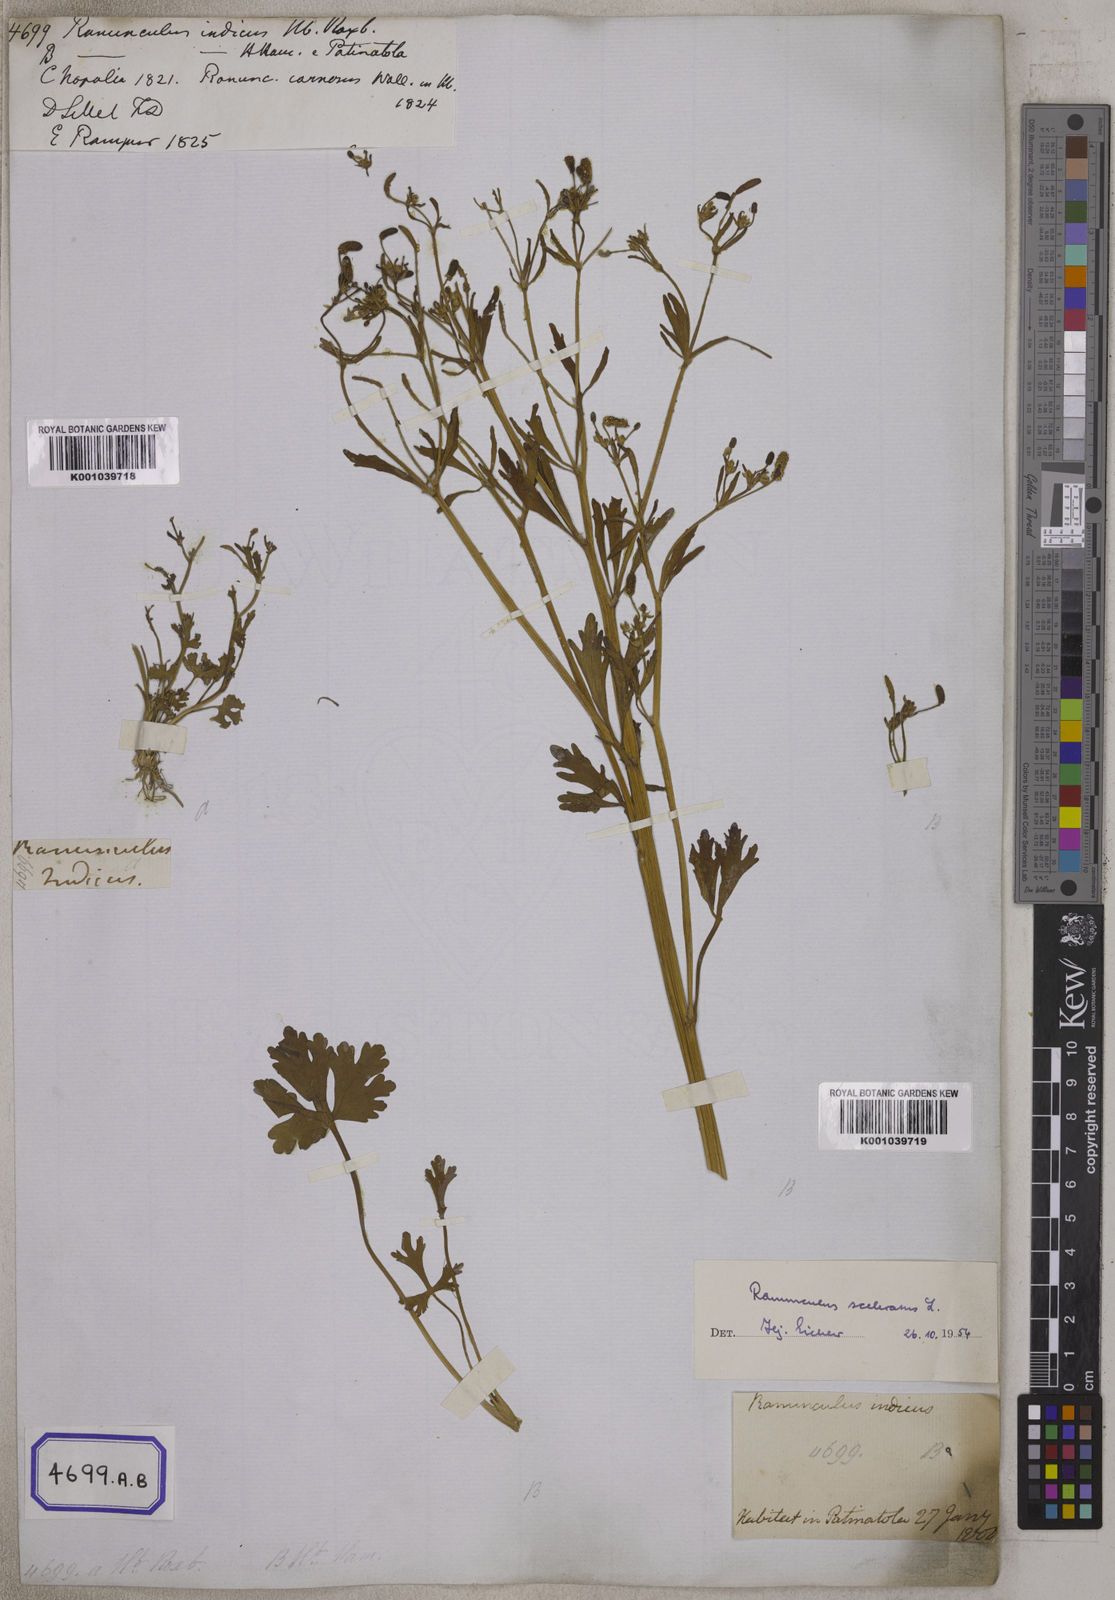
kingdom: Plantae
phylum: Tracheophyta
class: Magnoliopsida
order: Ranunculales
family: Ranunculaceae
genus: Ranunculus
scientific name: Ranunculus sceleratus
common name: Celery-leaved buttercup
